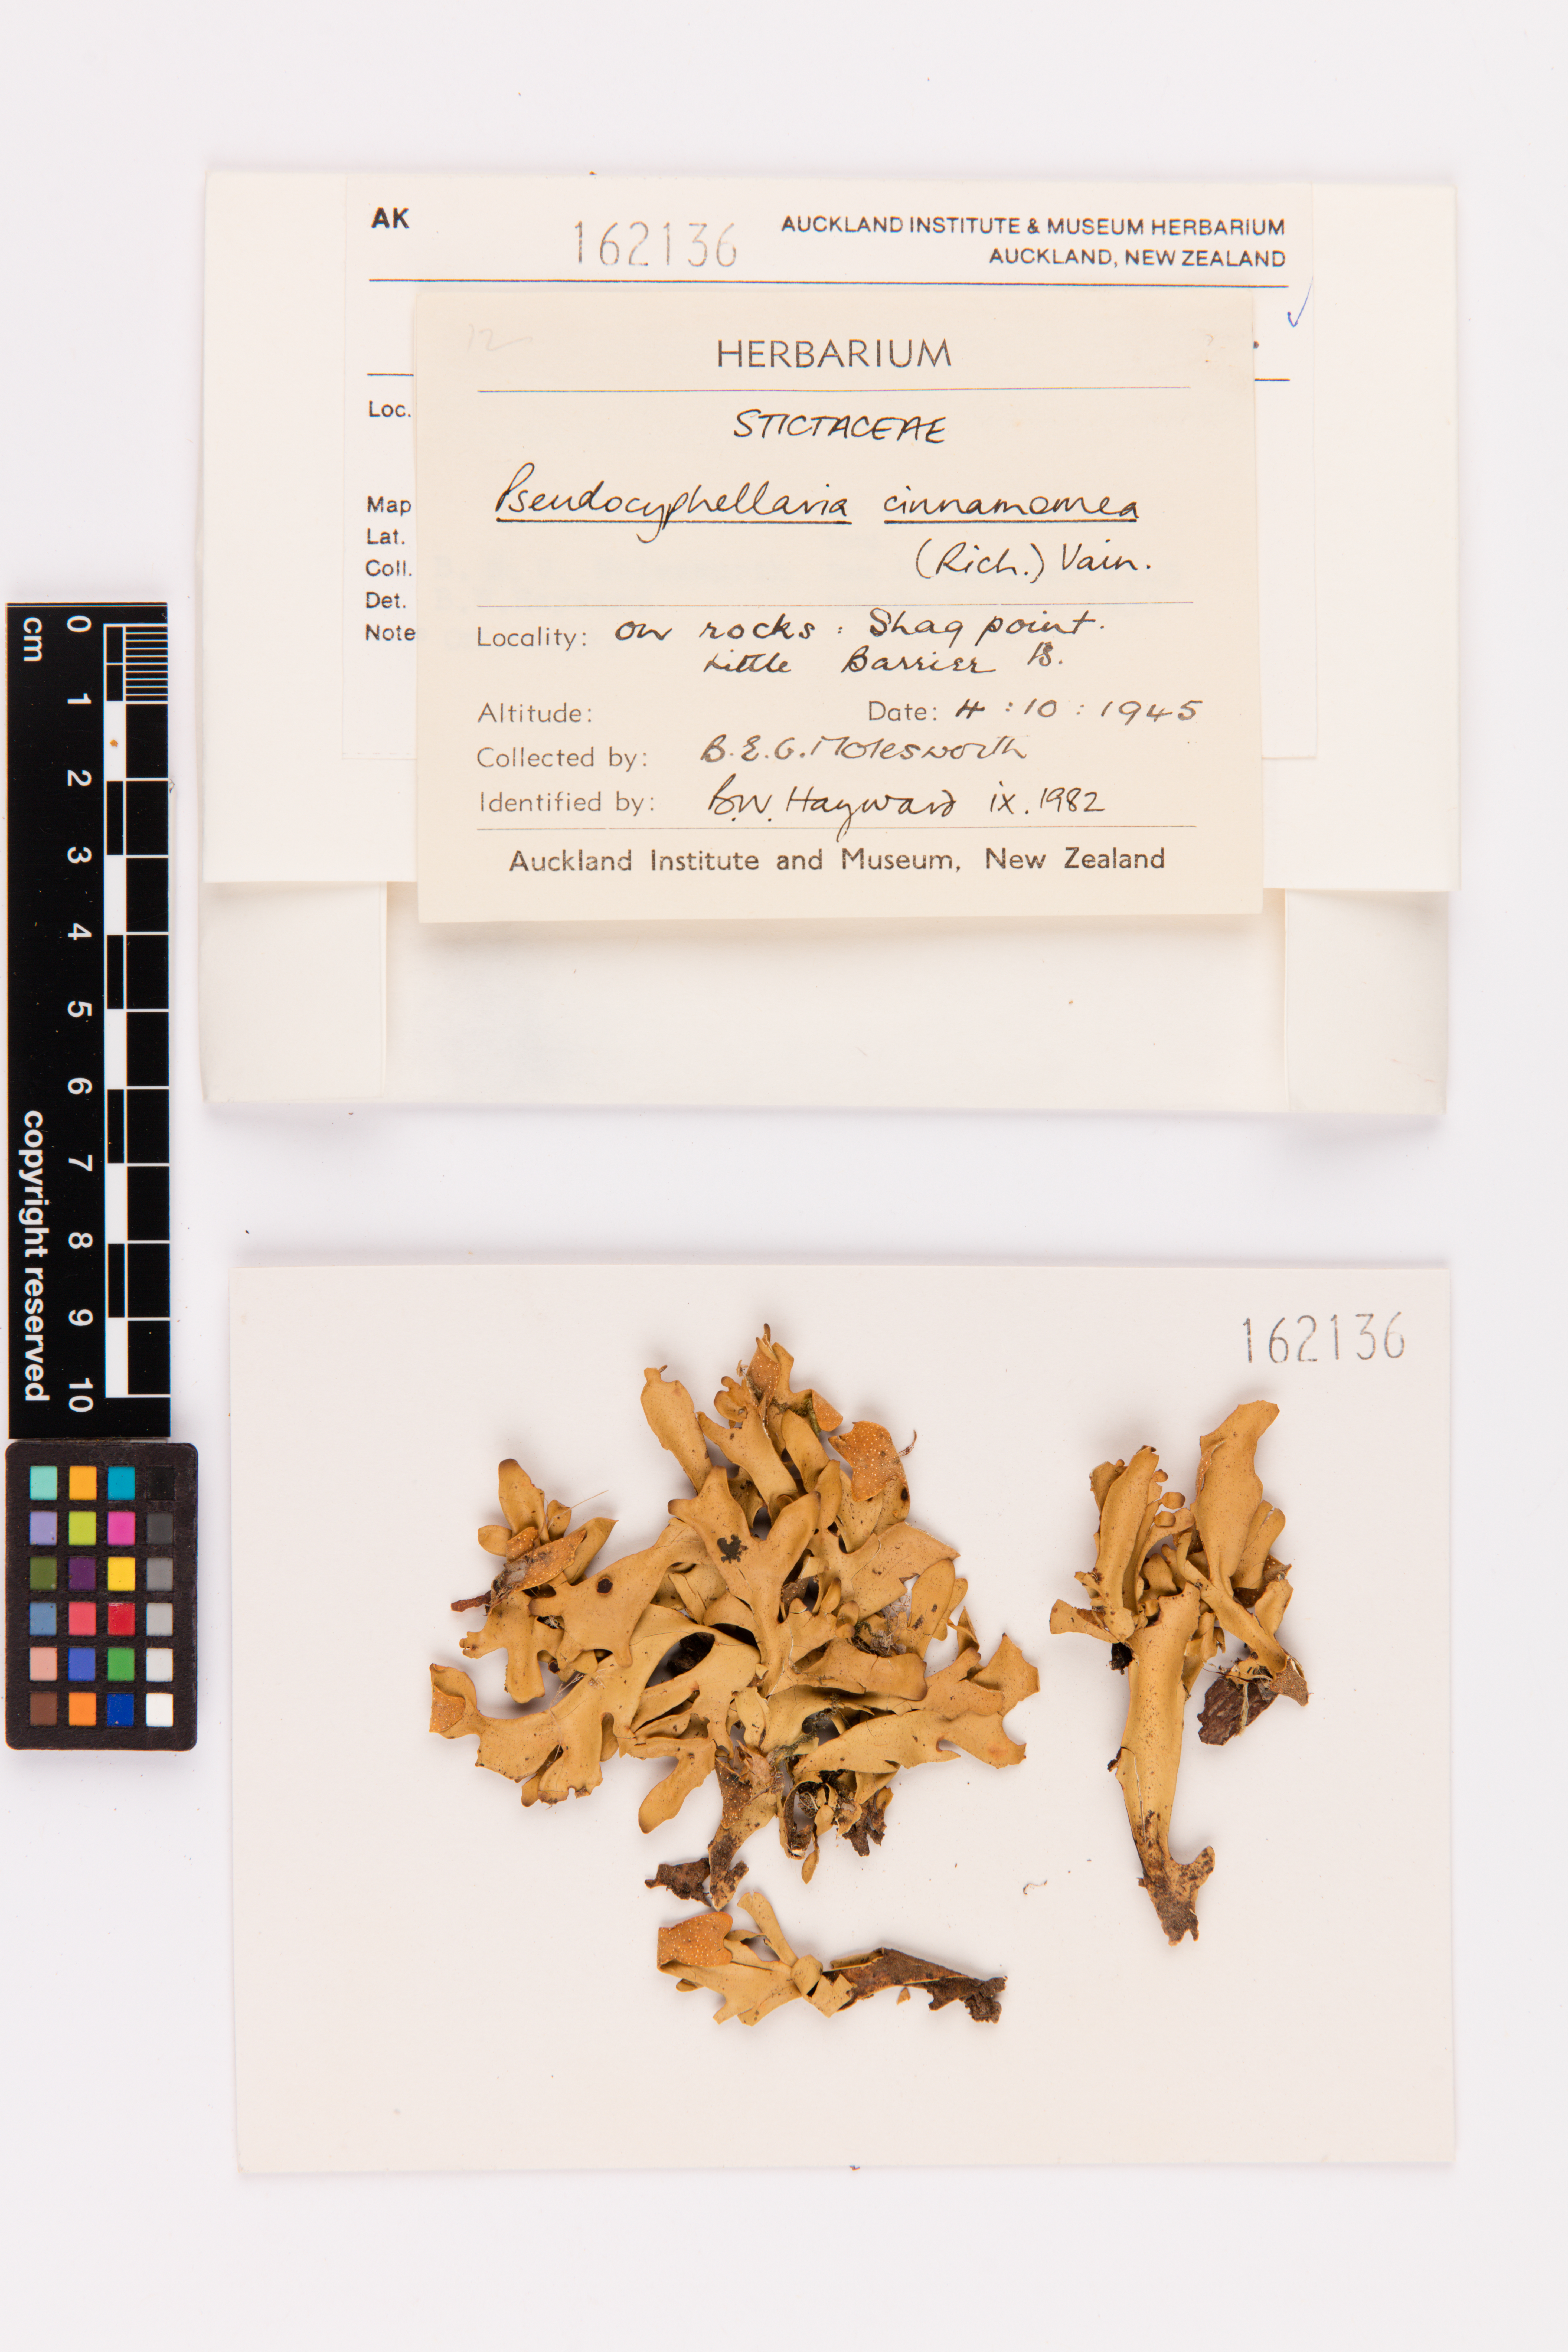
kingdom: Fungi
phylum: Ascomycota
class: Lecanoromycetes
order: Peltigerales
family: Lobariaceae
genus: Pseudocyphellaria
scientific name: Pseudocyphellaria cinnamomea
